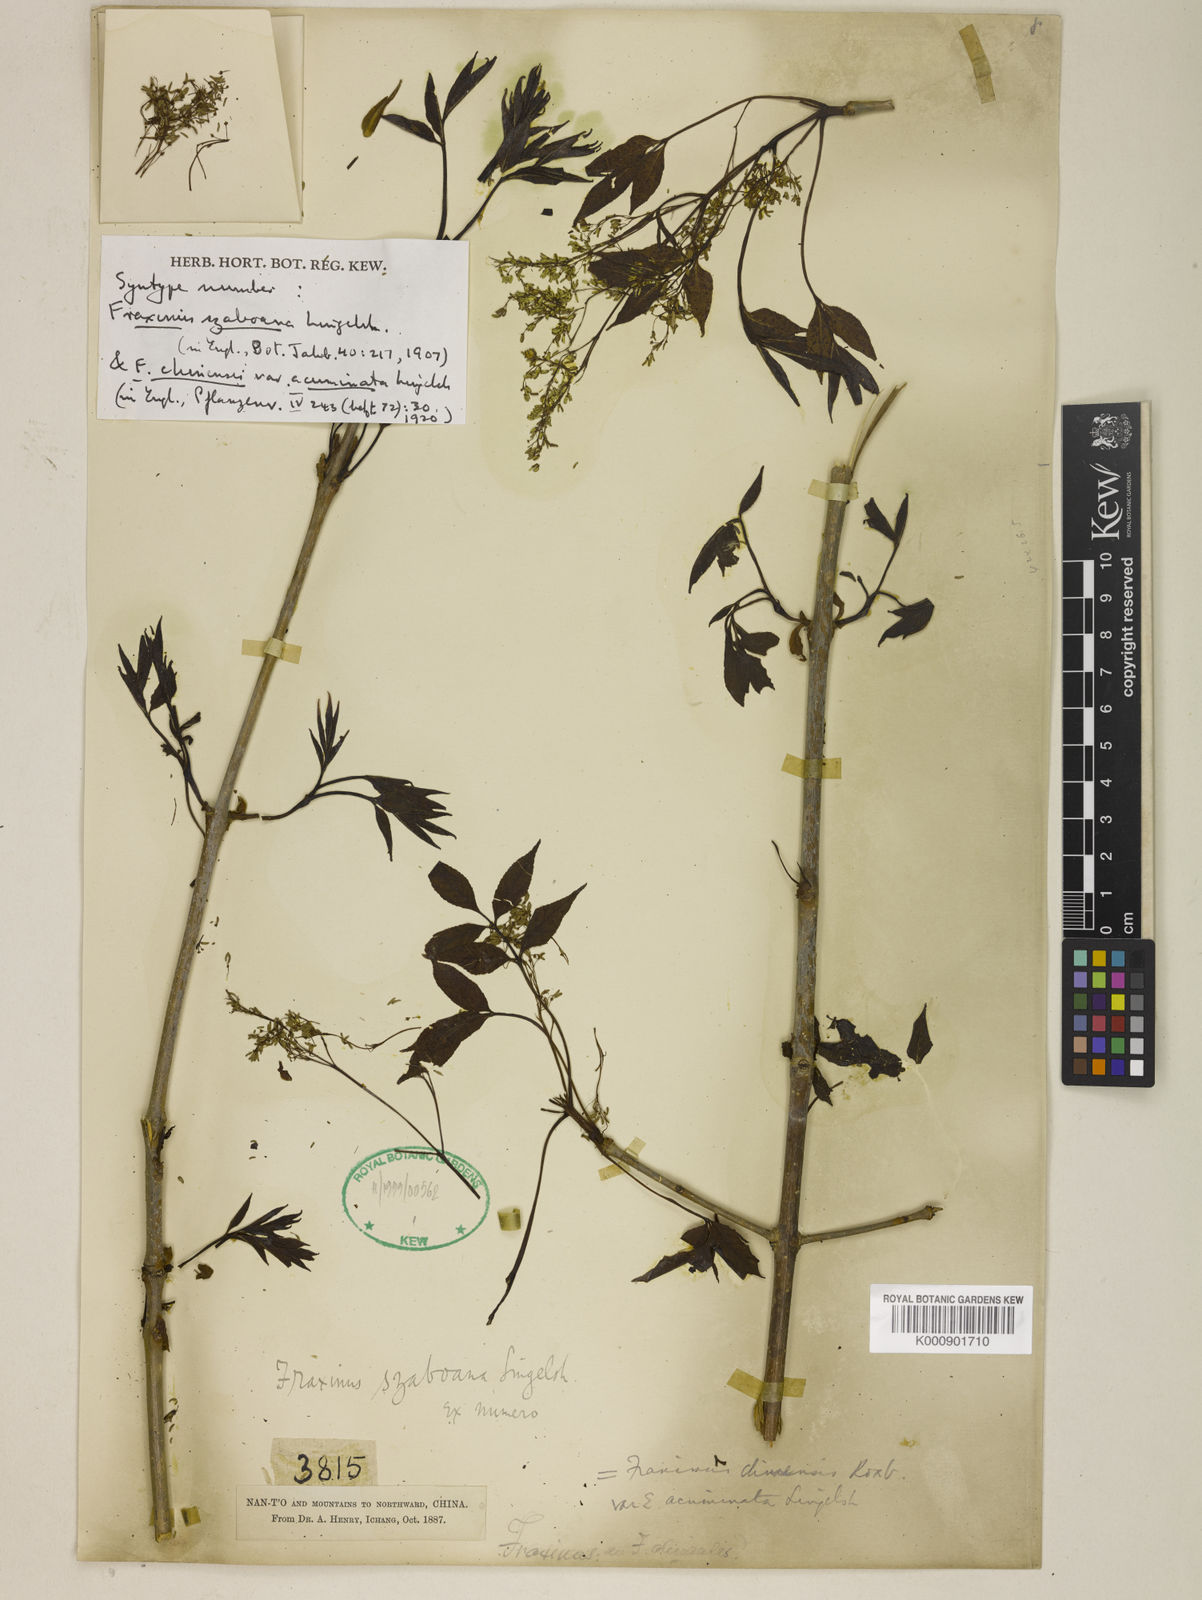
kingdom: Plantae
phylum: Tracheophyta
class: Magnoliopsida
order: Lamiales
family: Oleaceae
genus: Fraxinus
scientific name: Fraxinus chinensis
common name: Chinese ash
